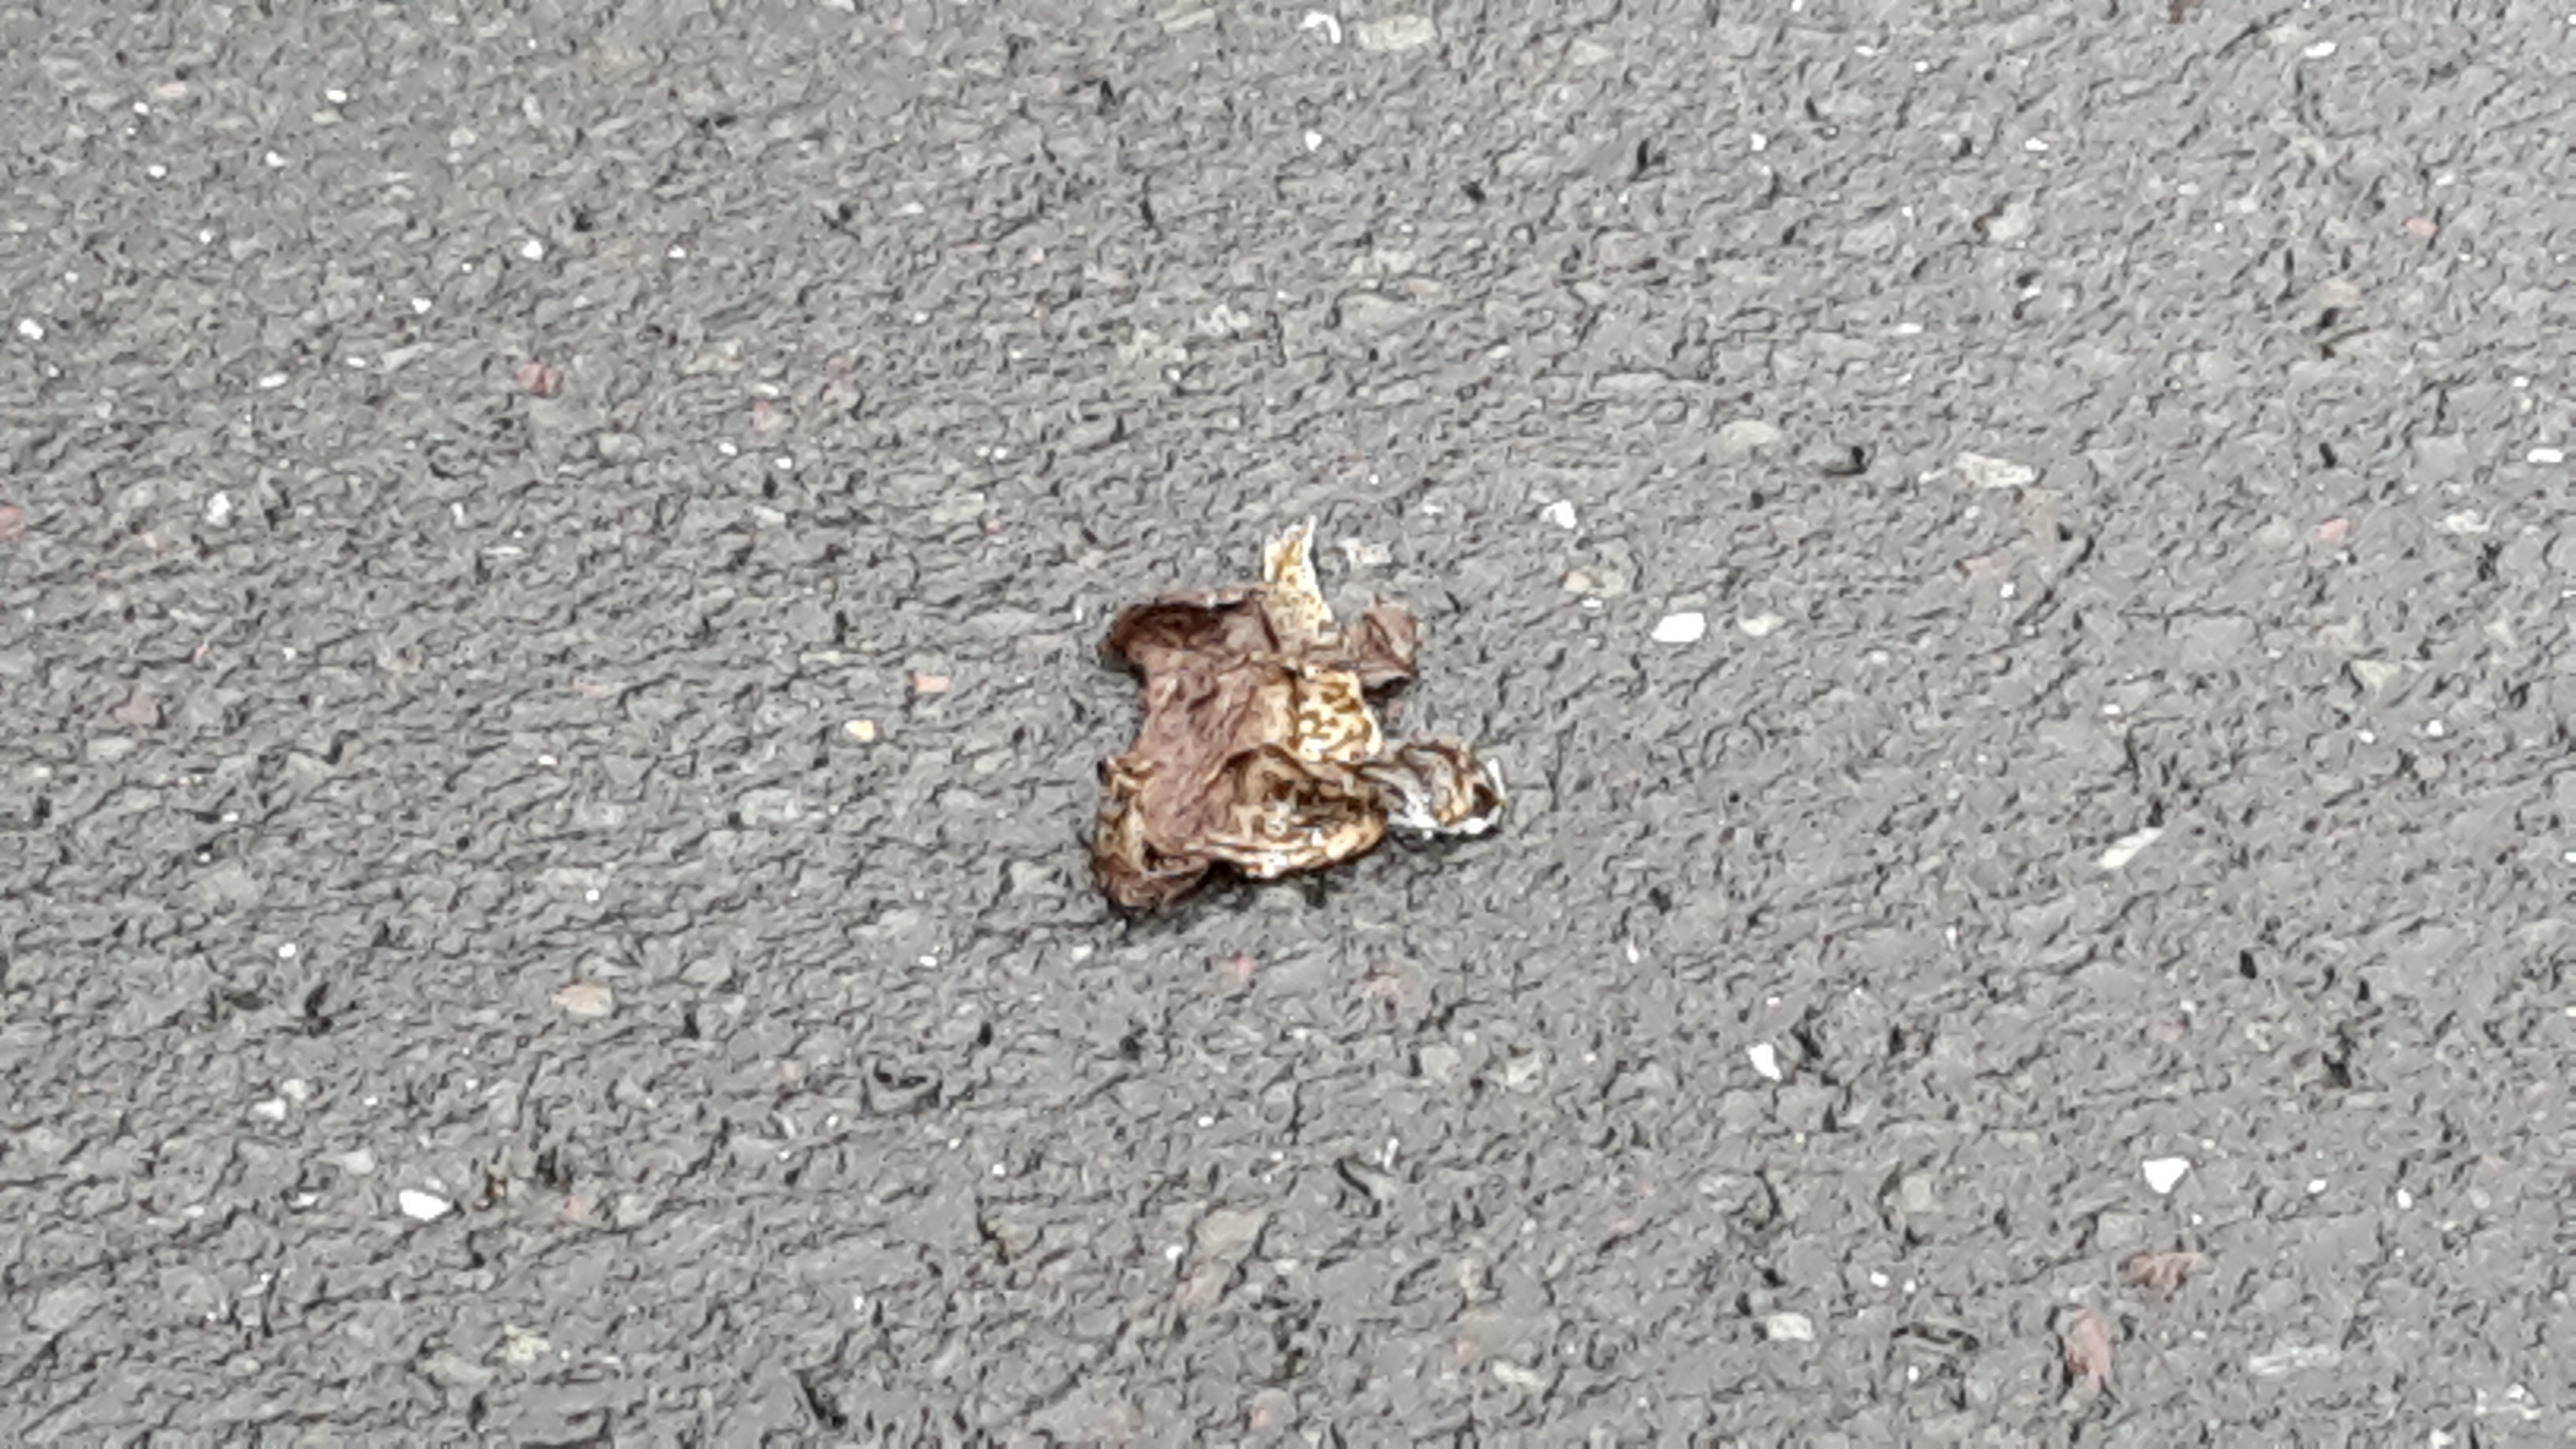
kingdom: Animalia
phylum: Chordata
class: Amphibia
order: Anura
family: Bufonidae
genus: Bufo
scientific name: Bufo bufo
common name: Common toad
